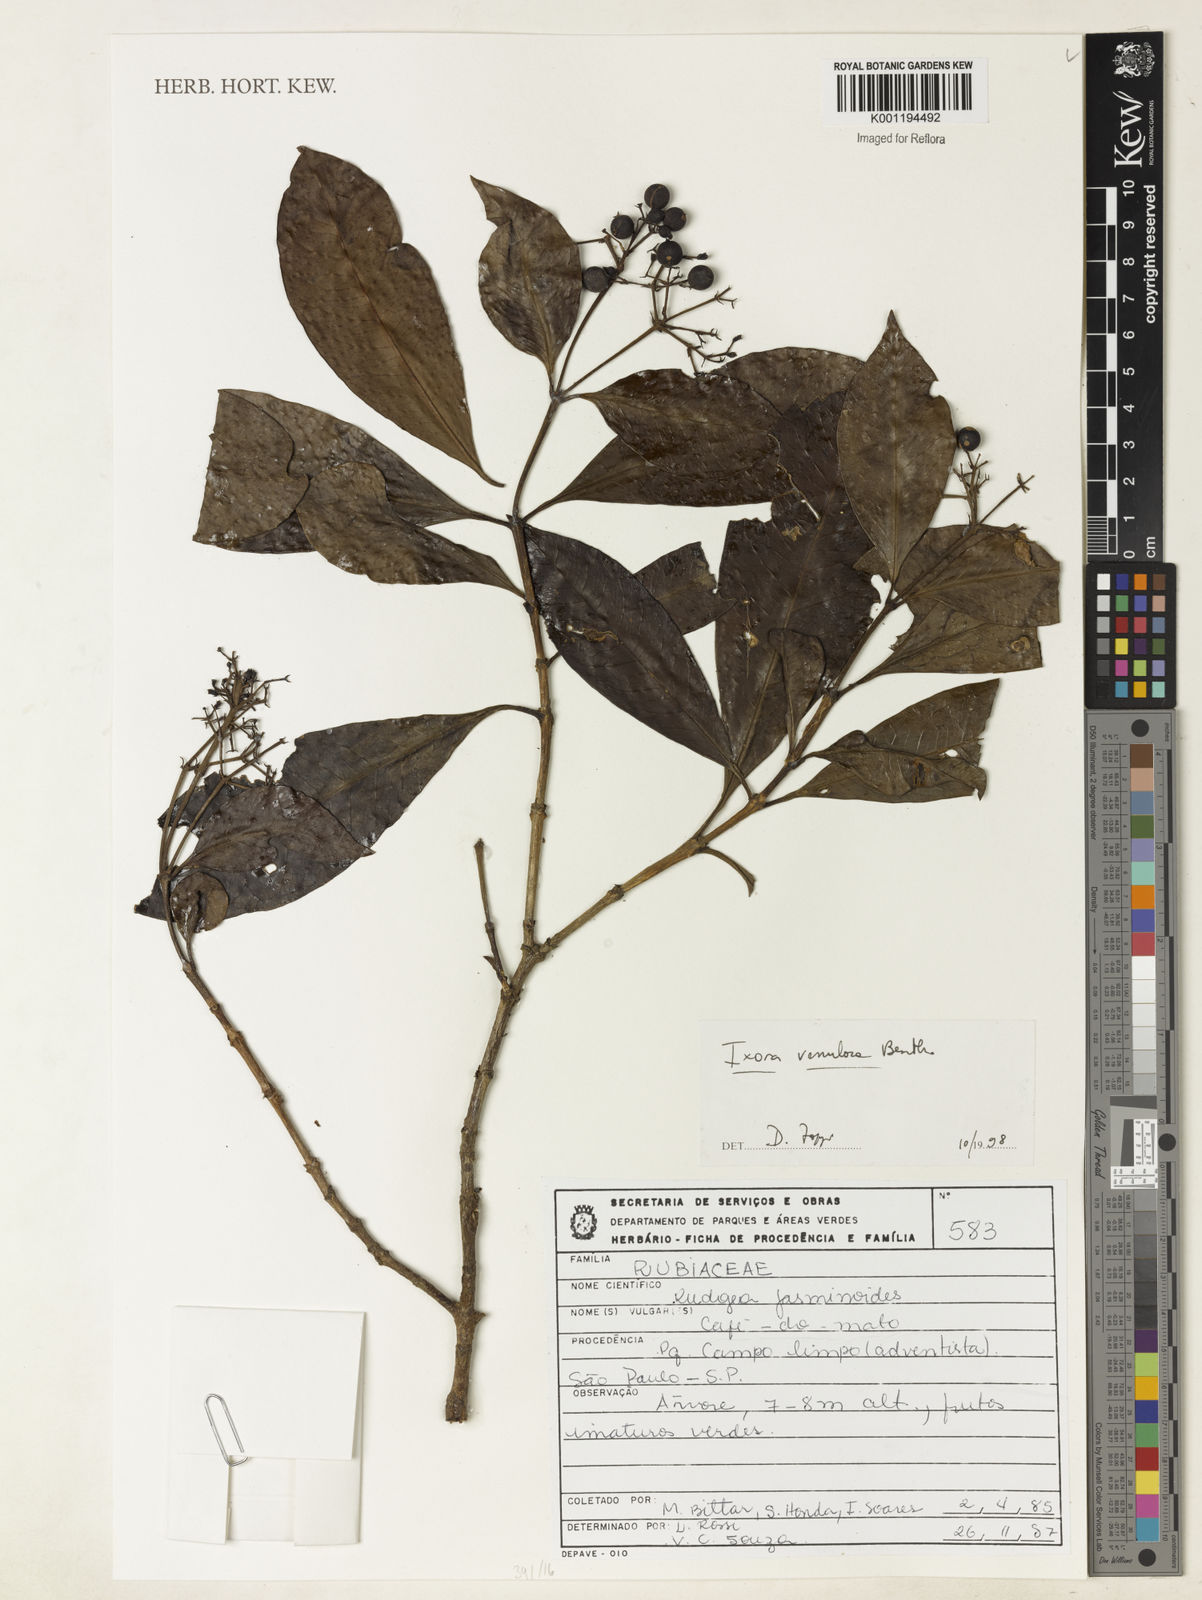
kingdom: Plantae
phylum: Tracheophyta
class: Magnoliopsida
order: Gentianales
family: Rubiaceae
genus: Ixora
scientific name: Ixora venulosa
